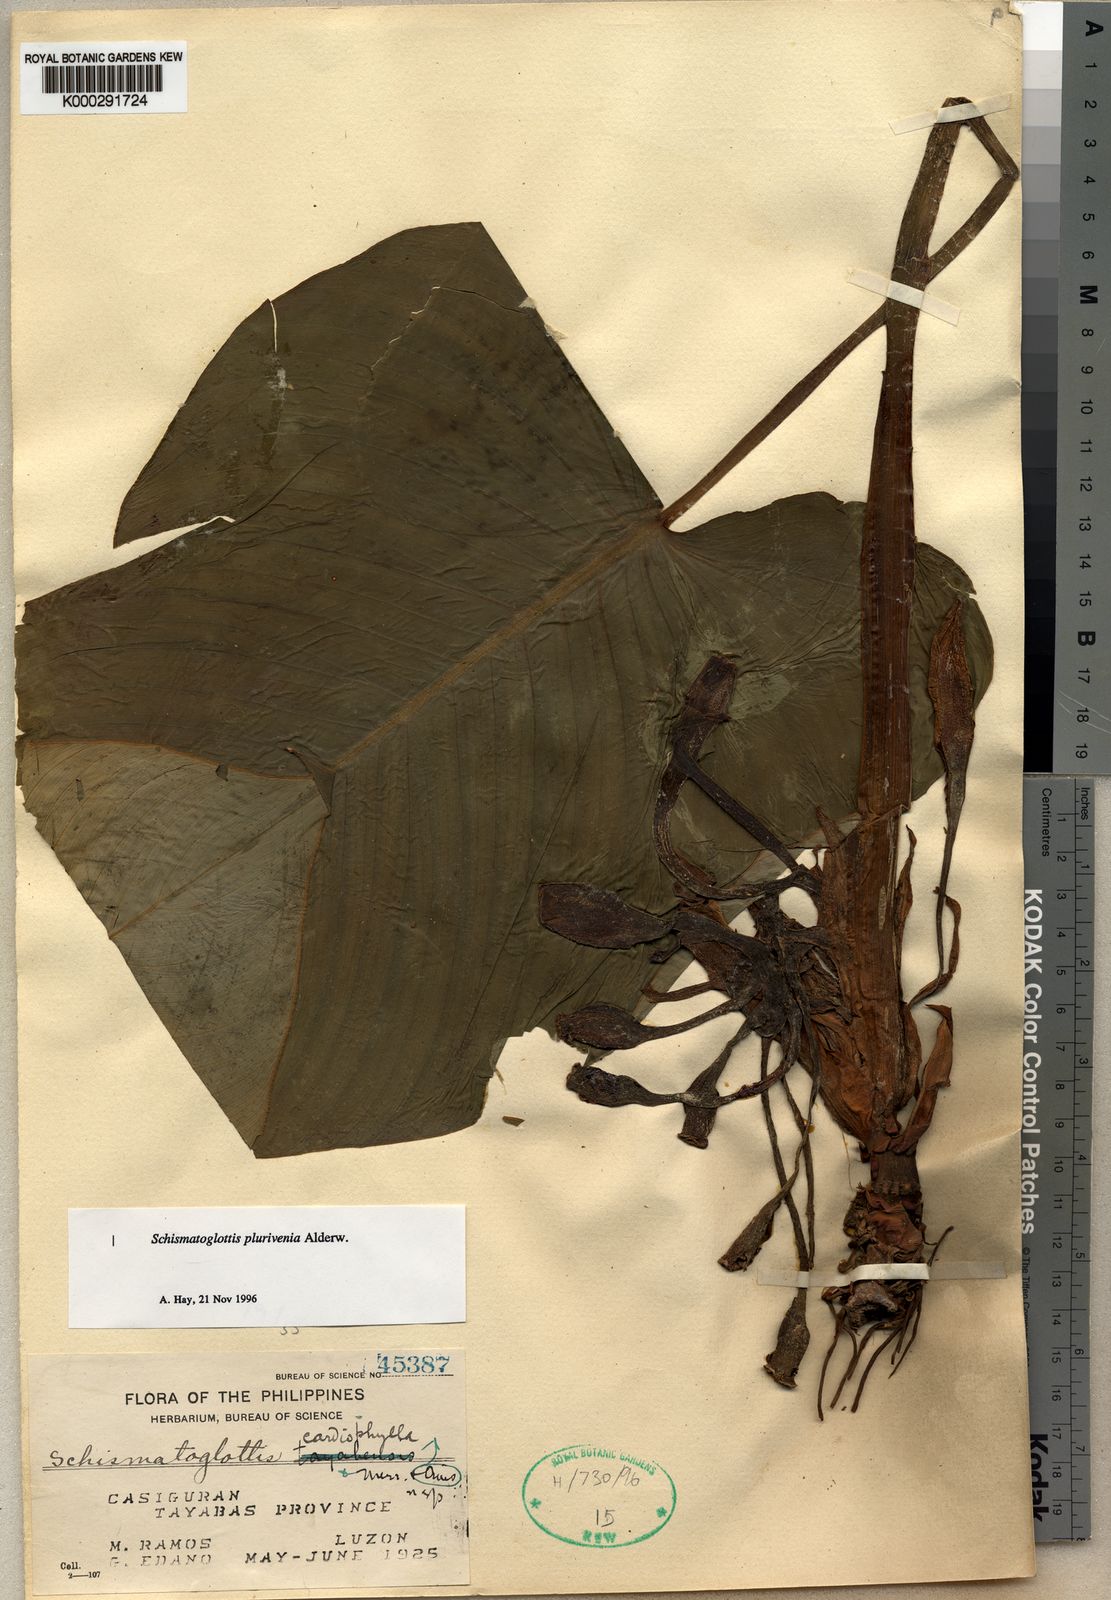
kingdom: Plantae
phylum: Tracheophyta
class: Liliopsida
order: Alismatales
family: Araceae
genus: Schismatoglottis
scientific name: Schismatoglottis plurivenia
